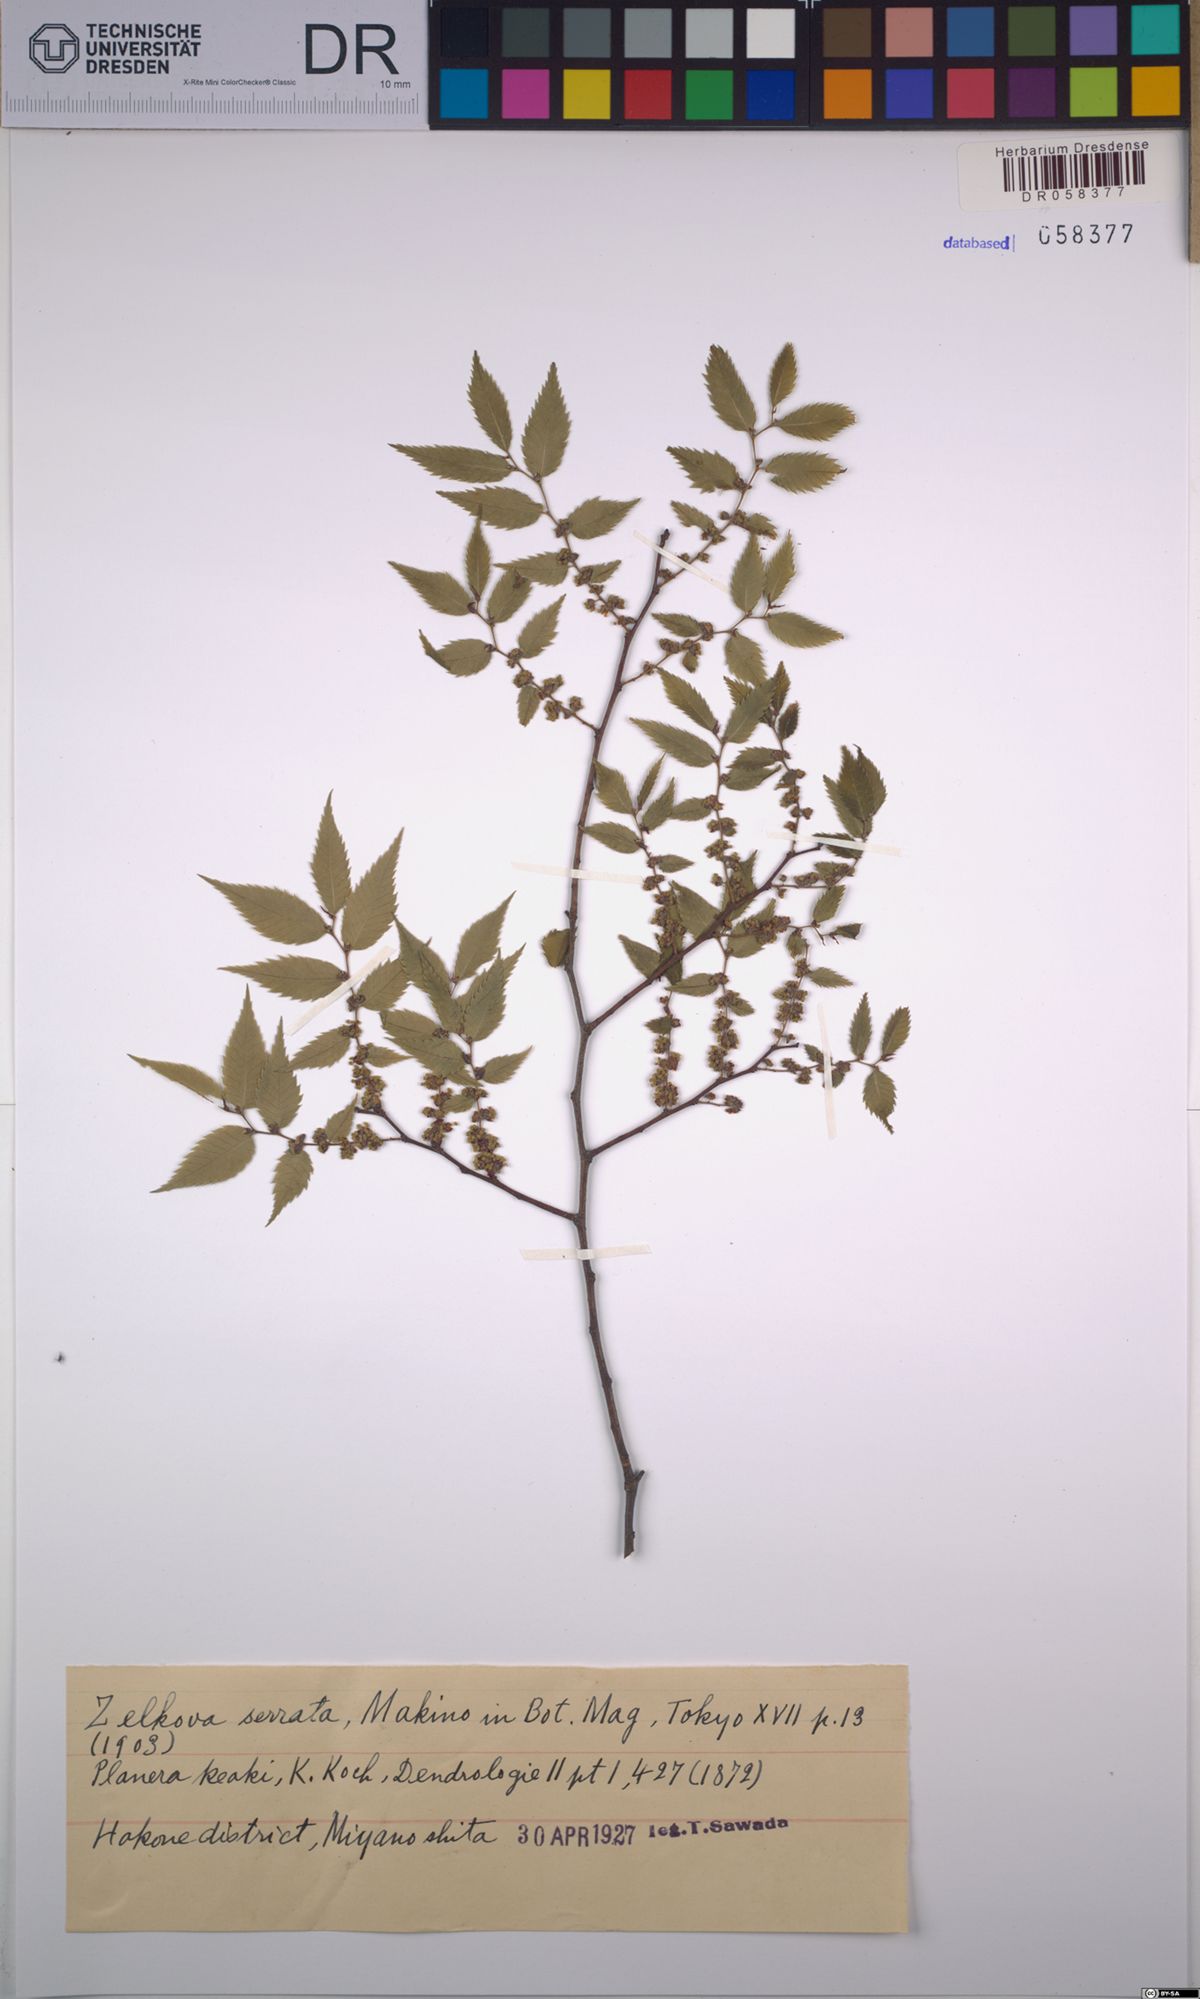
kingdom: Plantae
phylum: Tracheophyta
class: Magnoliopsida
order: Rosales
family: Ulmaceae
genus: Zelkova
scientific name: Zelkova serrata
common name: Japanese zelkova
